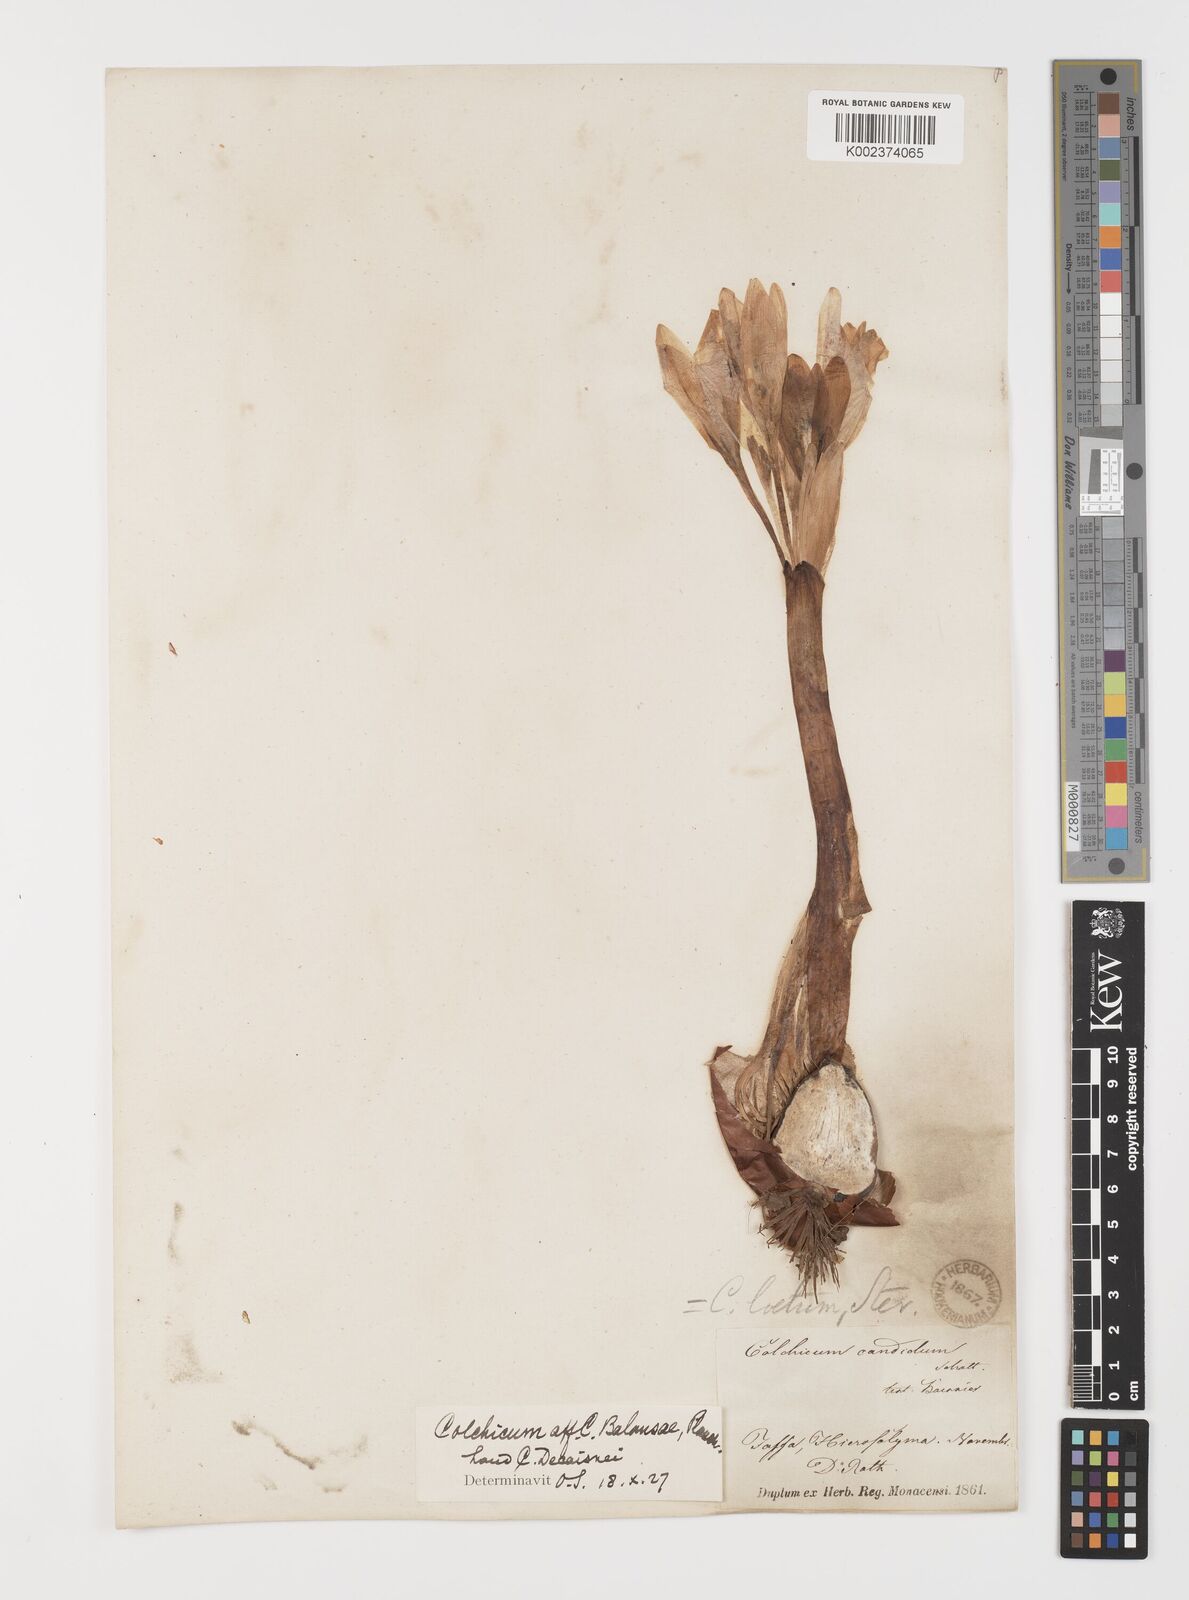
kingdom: Plantae
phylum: Tracheophyta
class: Liliopsida
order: Liliales
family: Colchicaceae
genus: Colchicum
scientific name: Colchicum balansae
